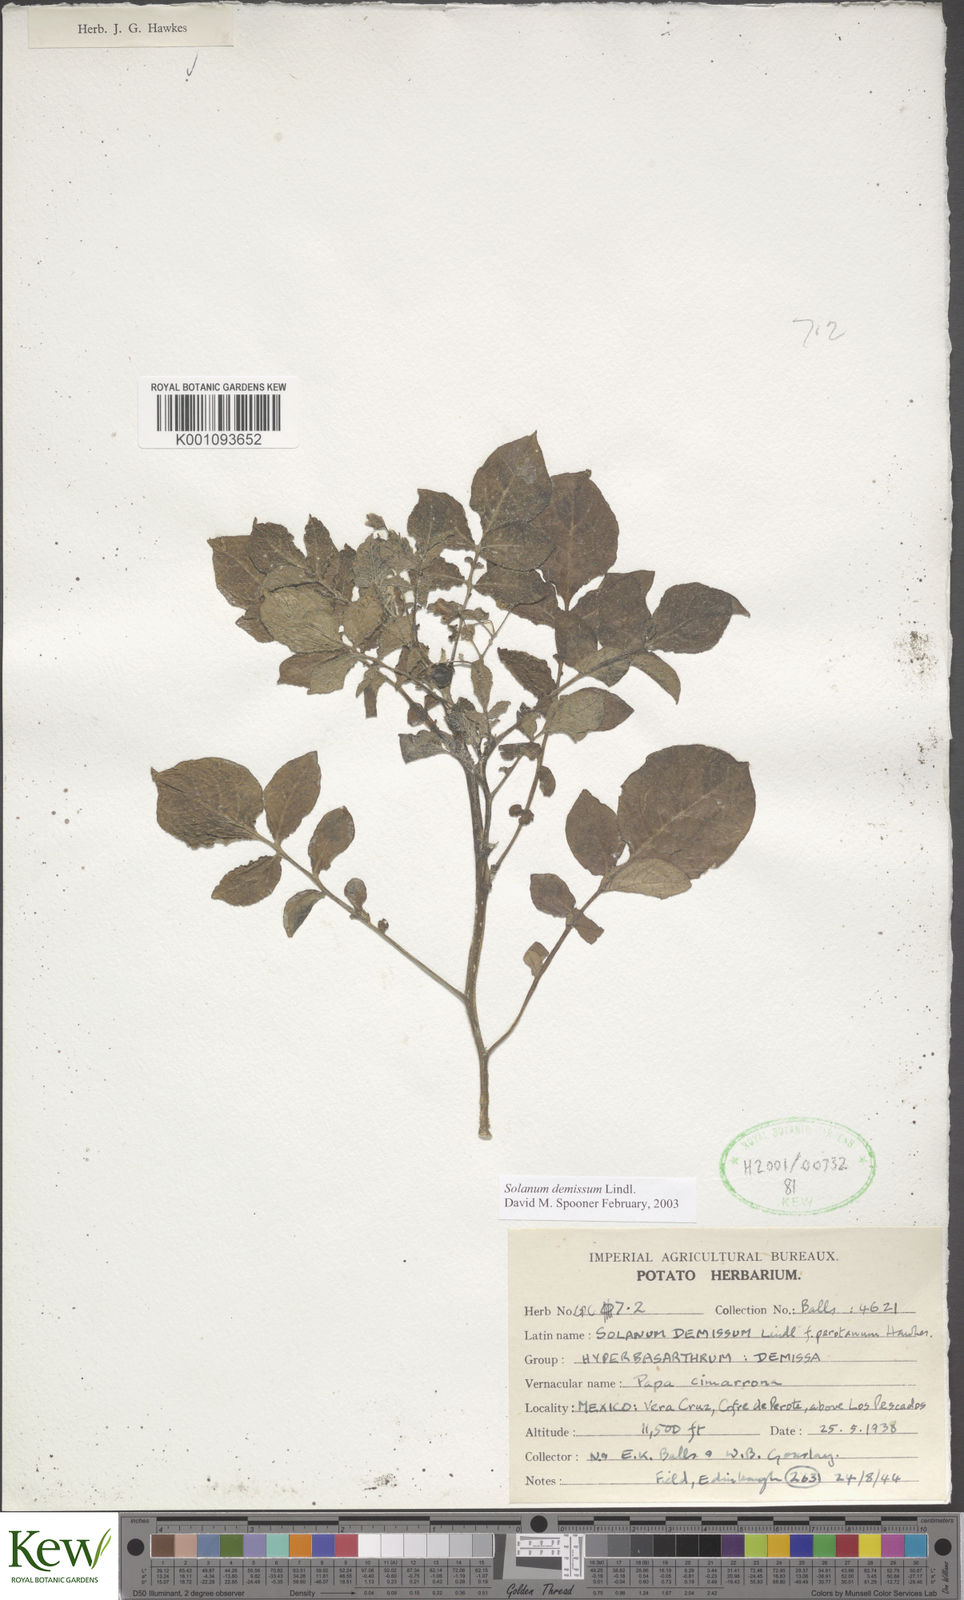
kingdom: Plantae
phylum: Tracheophyta
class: Magnoliopsida
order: Solanales
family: Solanaceae
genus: Solanum
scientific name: Solanum demissum
